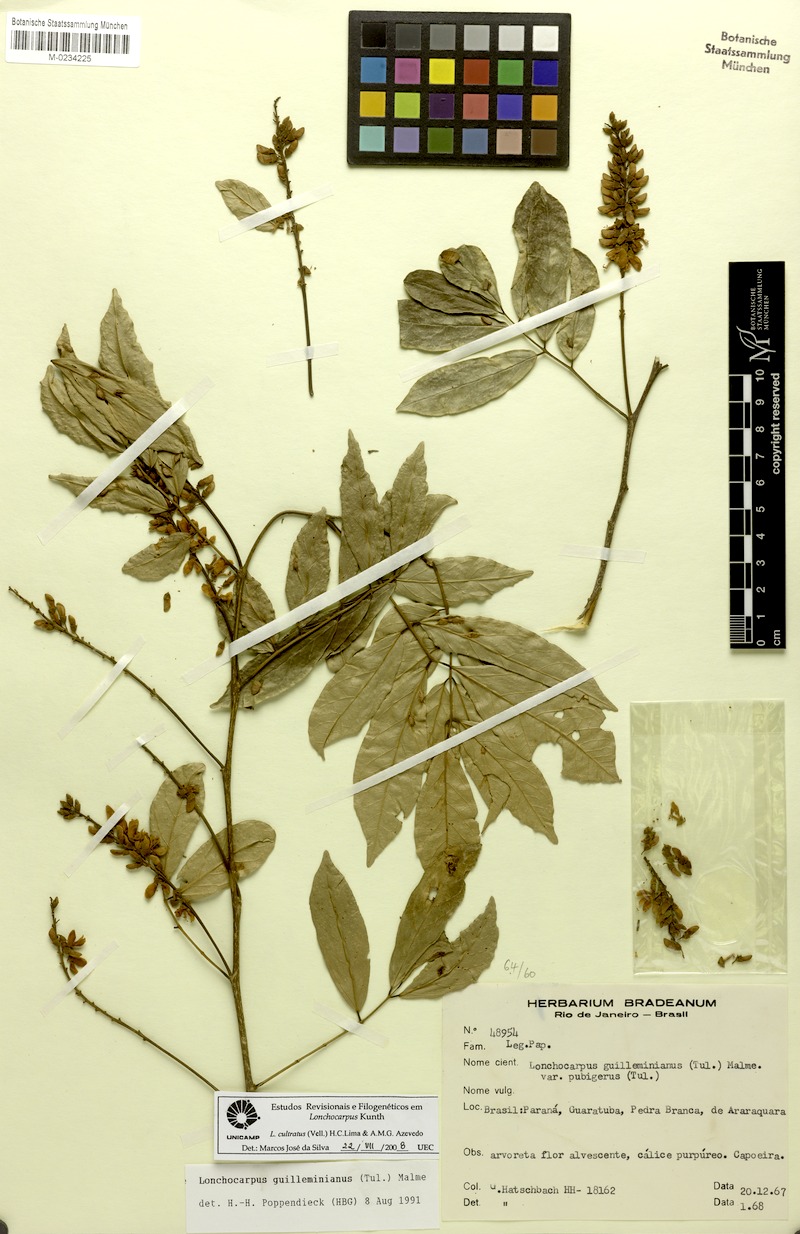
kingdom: Plantae
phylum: Tracheophyta
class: Magnoliopsida
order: Fabales
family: Fabaceae
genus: Lonchocarpus
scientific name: Lonchocarpus cultratus
